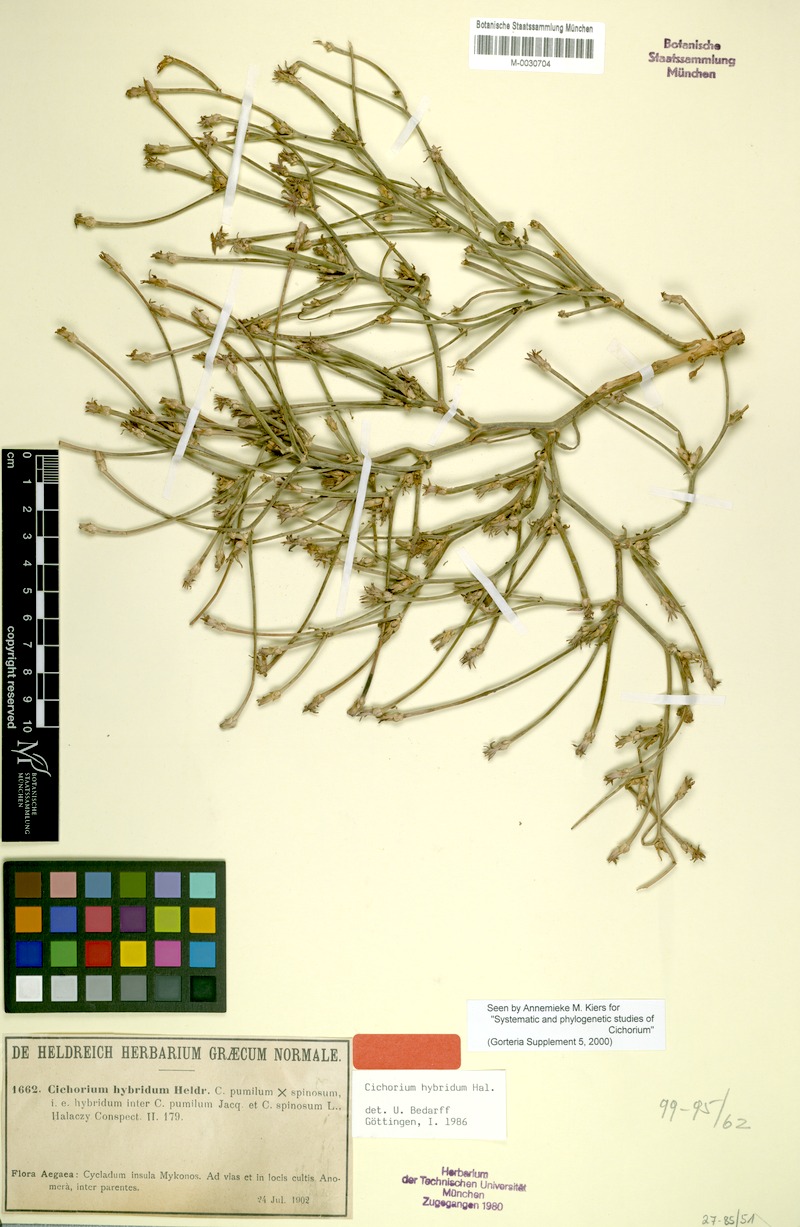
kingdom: Plantae
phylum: Tracheophyta
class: Magnoliopsida
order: Asterales
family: Asteraceae
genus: Cichorium
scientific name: Cichorium spinosum
